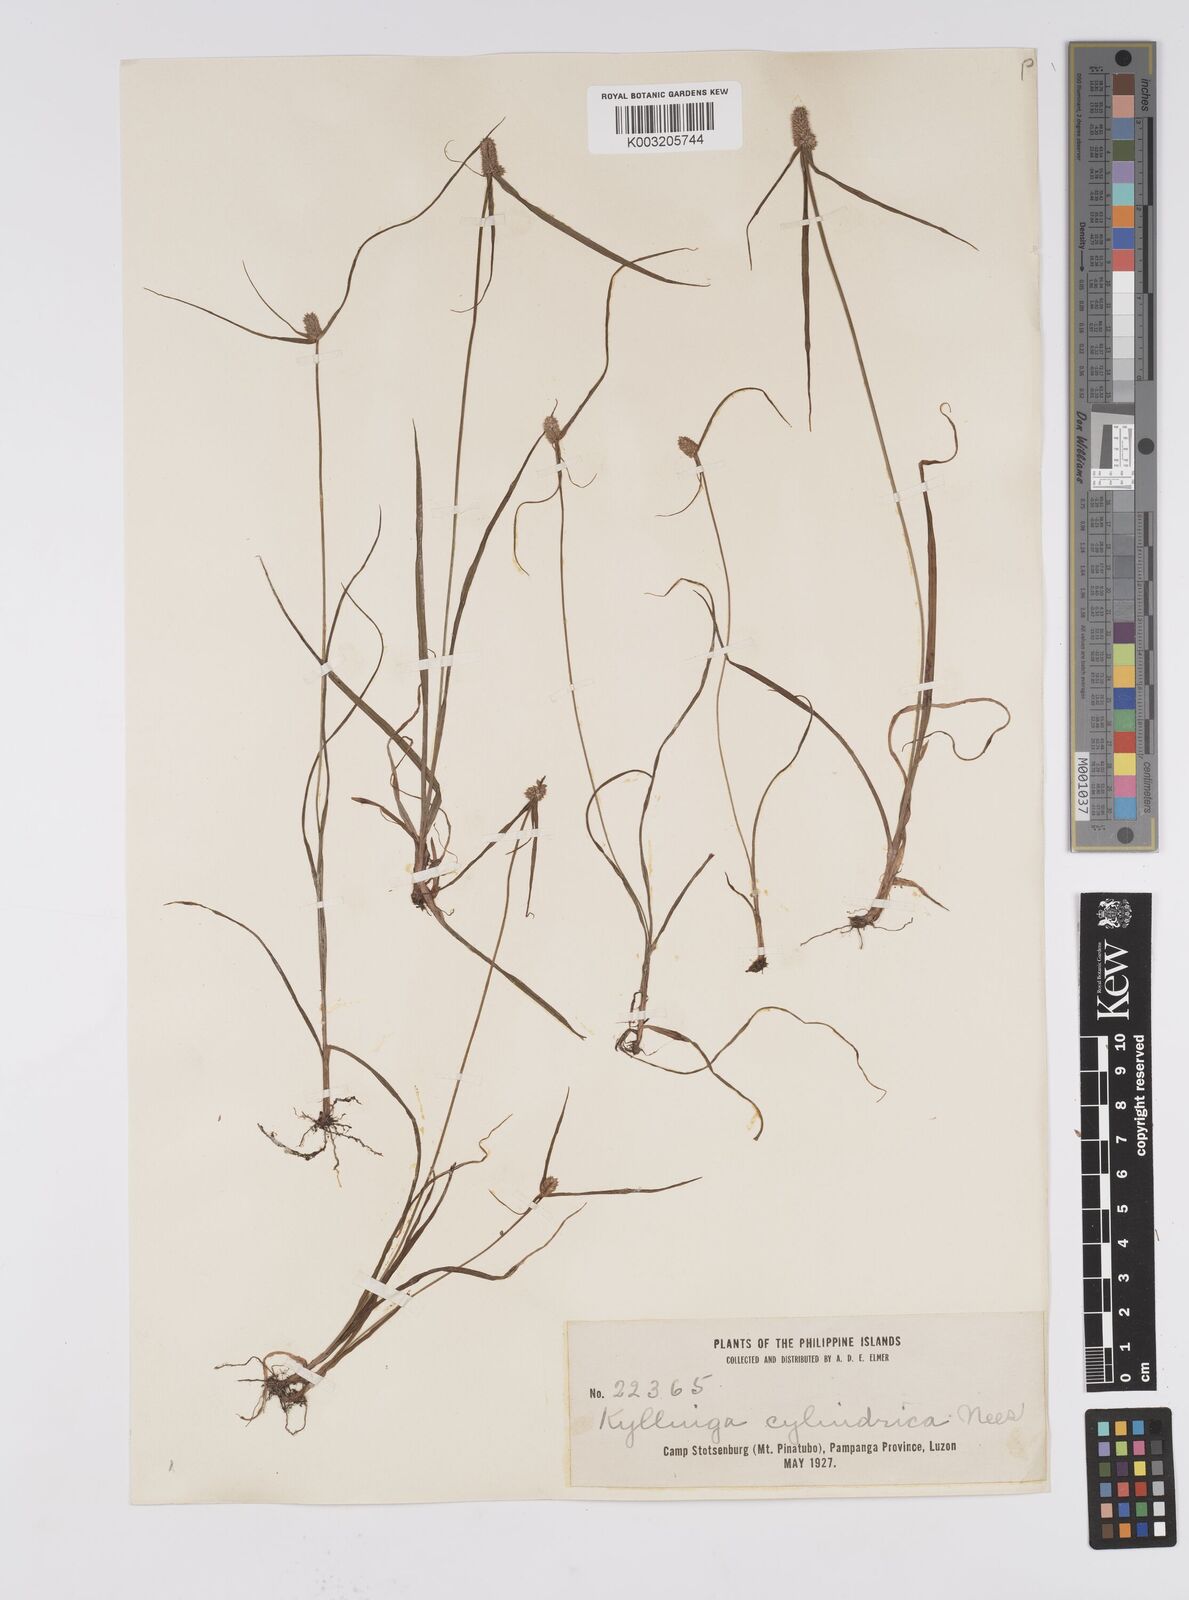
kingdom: Plantae
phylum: Tracheophyta
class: Liliopsida
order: Poales
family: Cyperaceae
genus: Cyperus
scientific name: Cyperus
